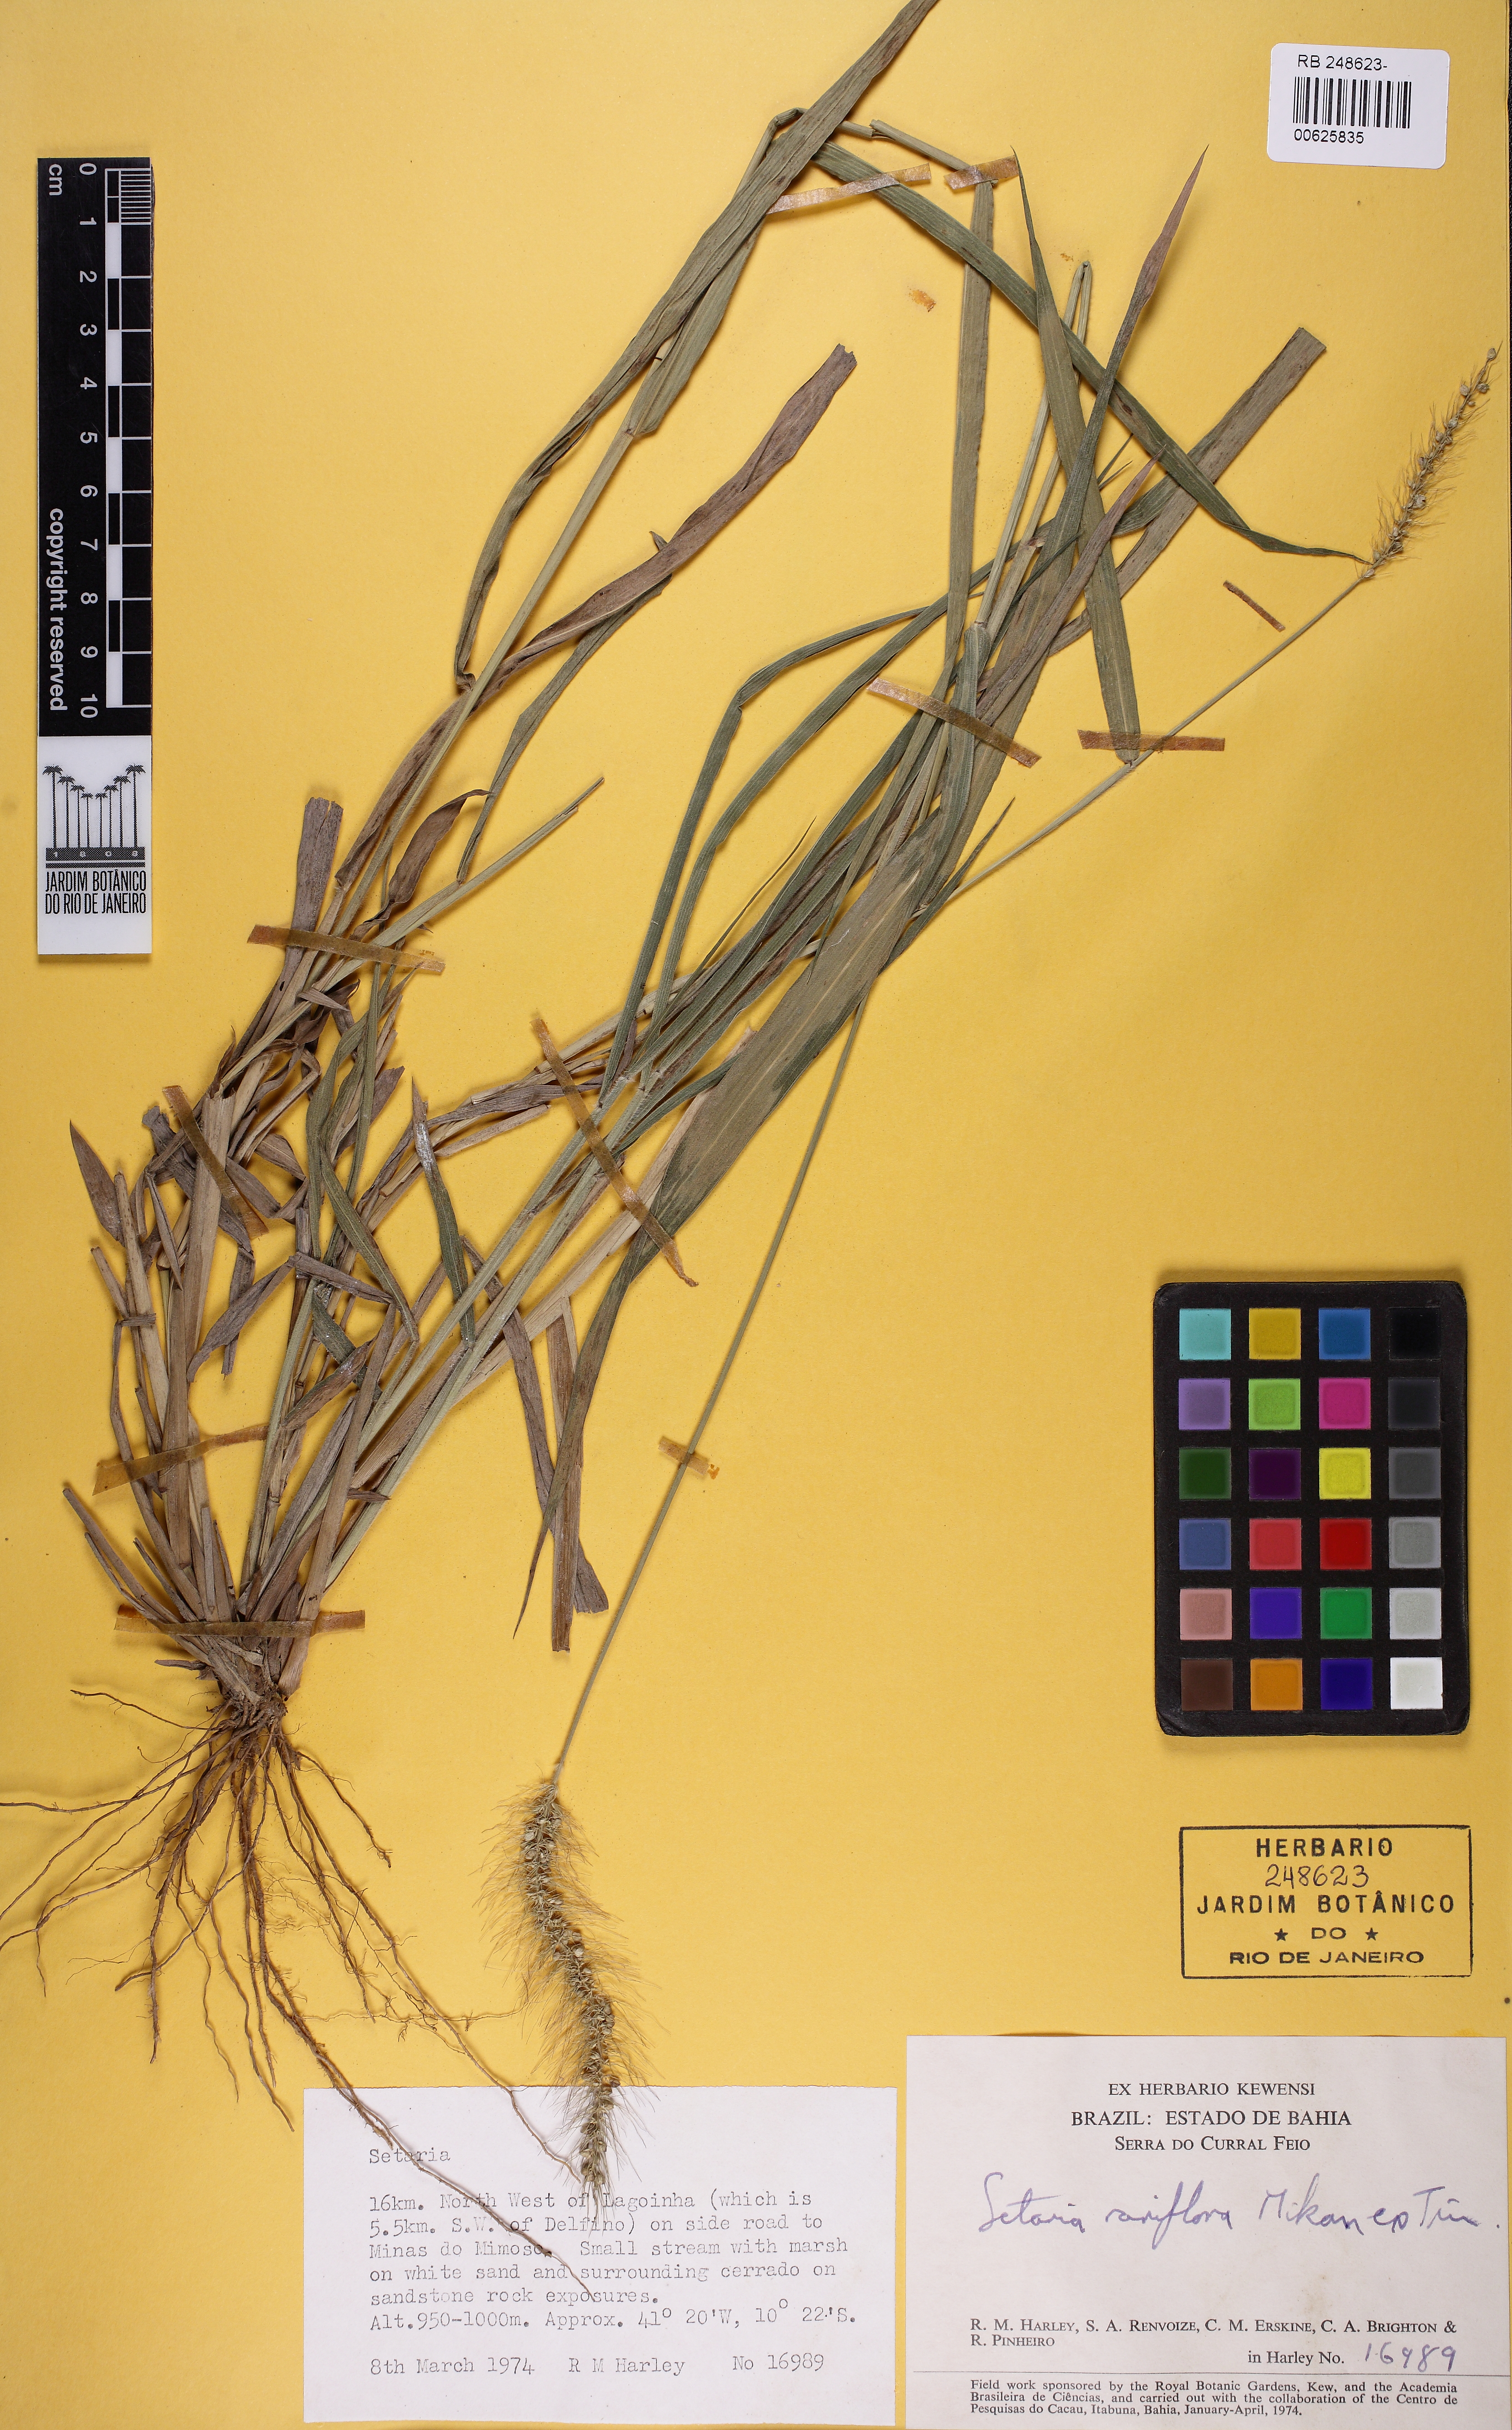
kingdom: Plantae
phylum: Tracheophyta
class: Liliopsida
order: Poales
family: Poaceae
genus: Setaria
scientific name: Setaria setosa
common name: West indies bristle grass
